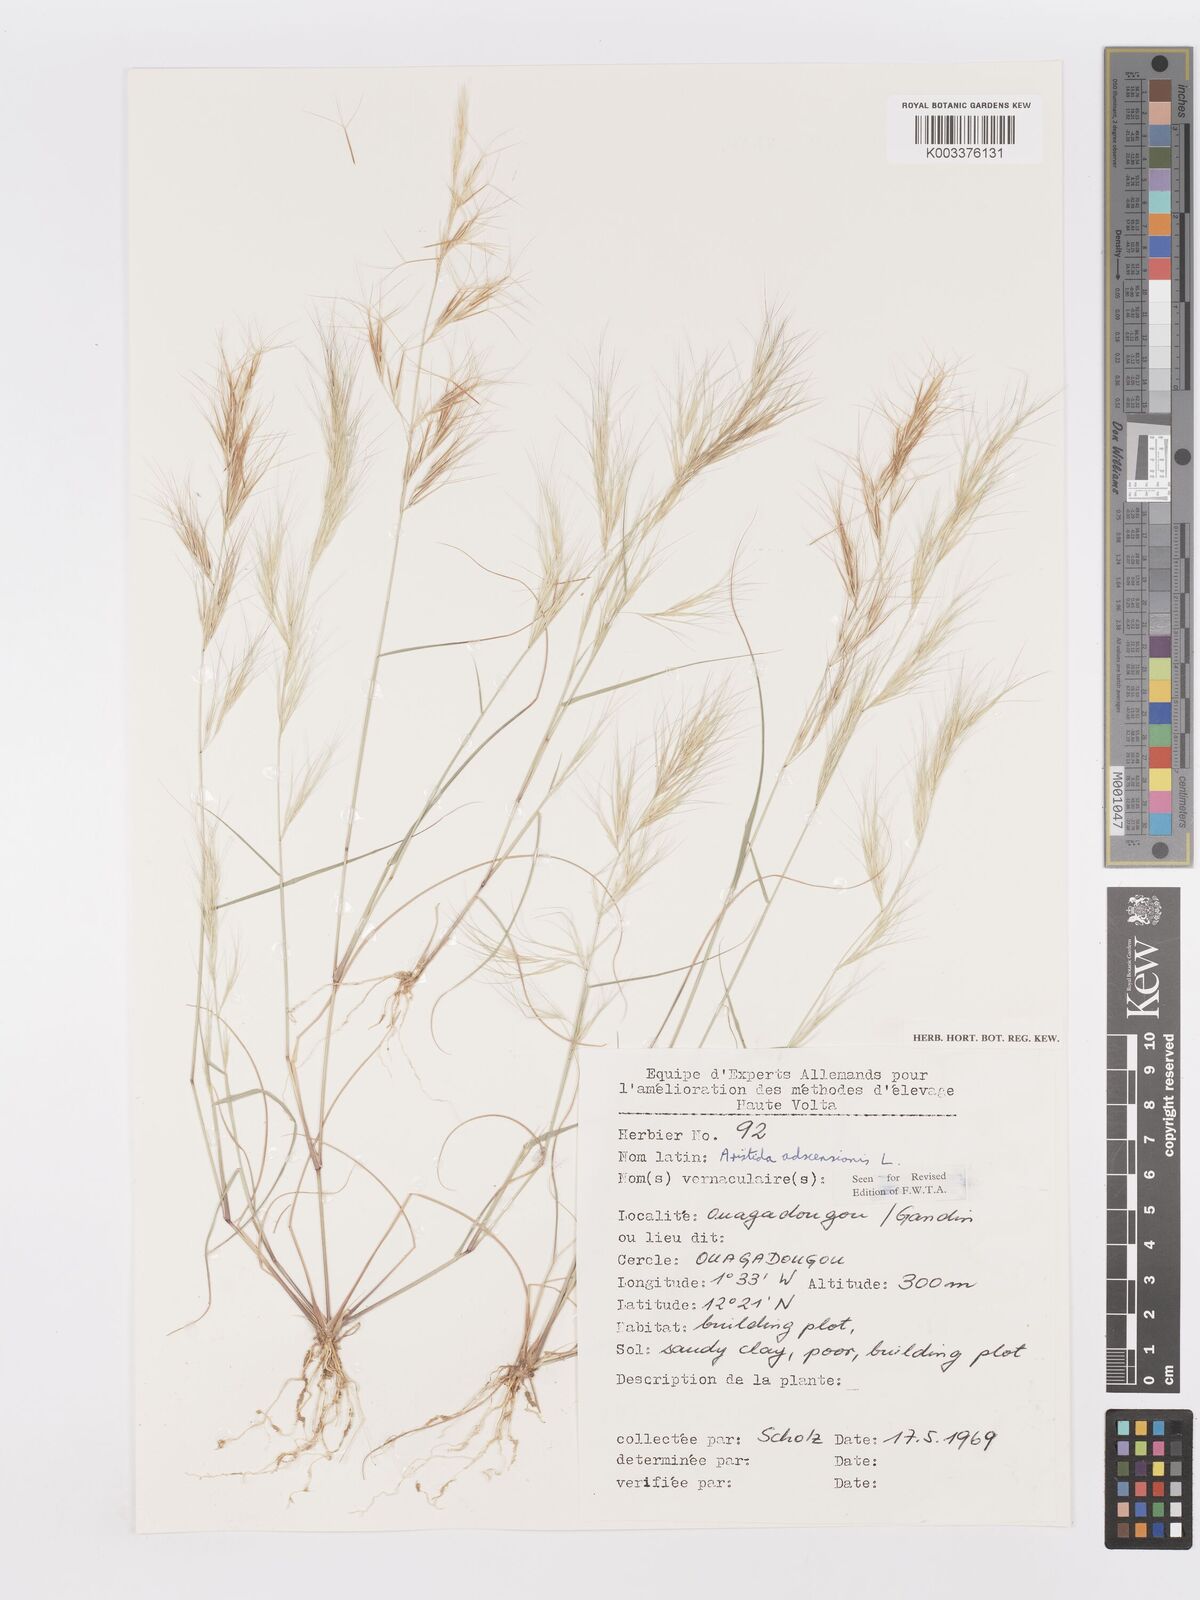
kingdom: Plantae
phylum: Tracheophyta
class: Liliopsida
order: Poales
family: Poaceae
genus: Aristida
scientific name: Aristida adscensionis
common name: Sixweeks threeawn
